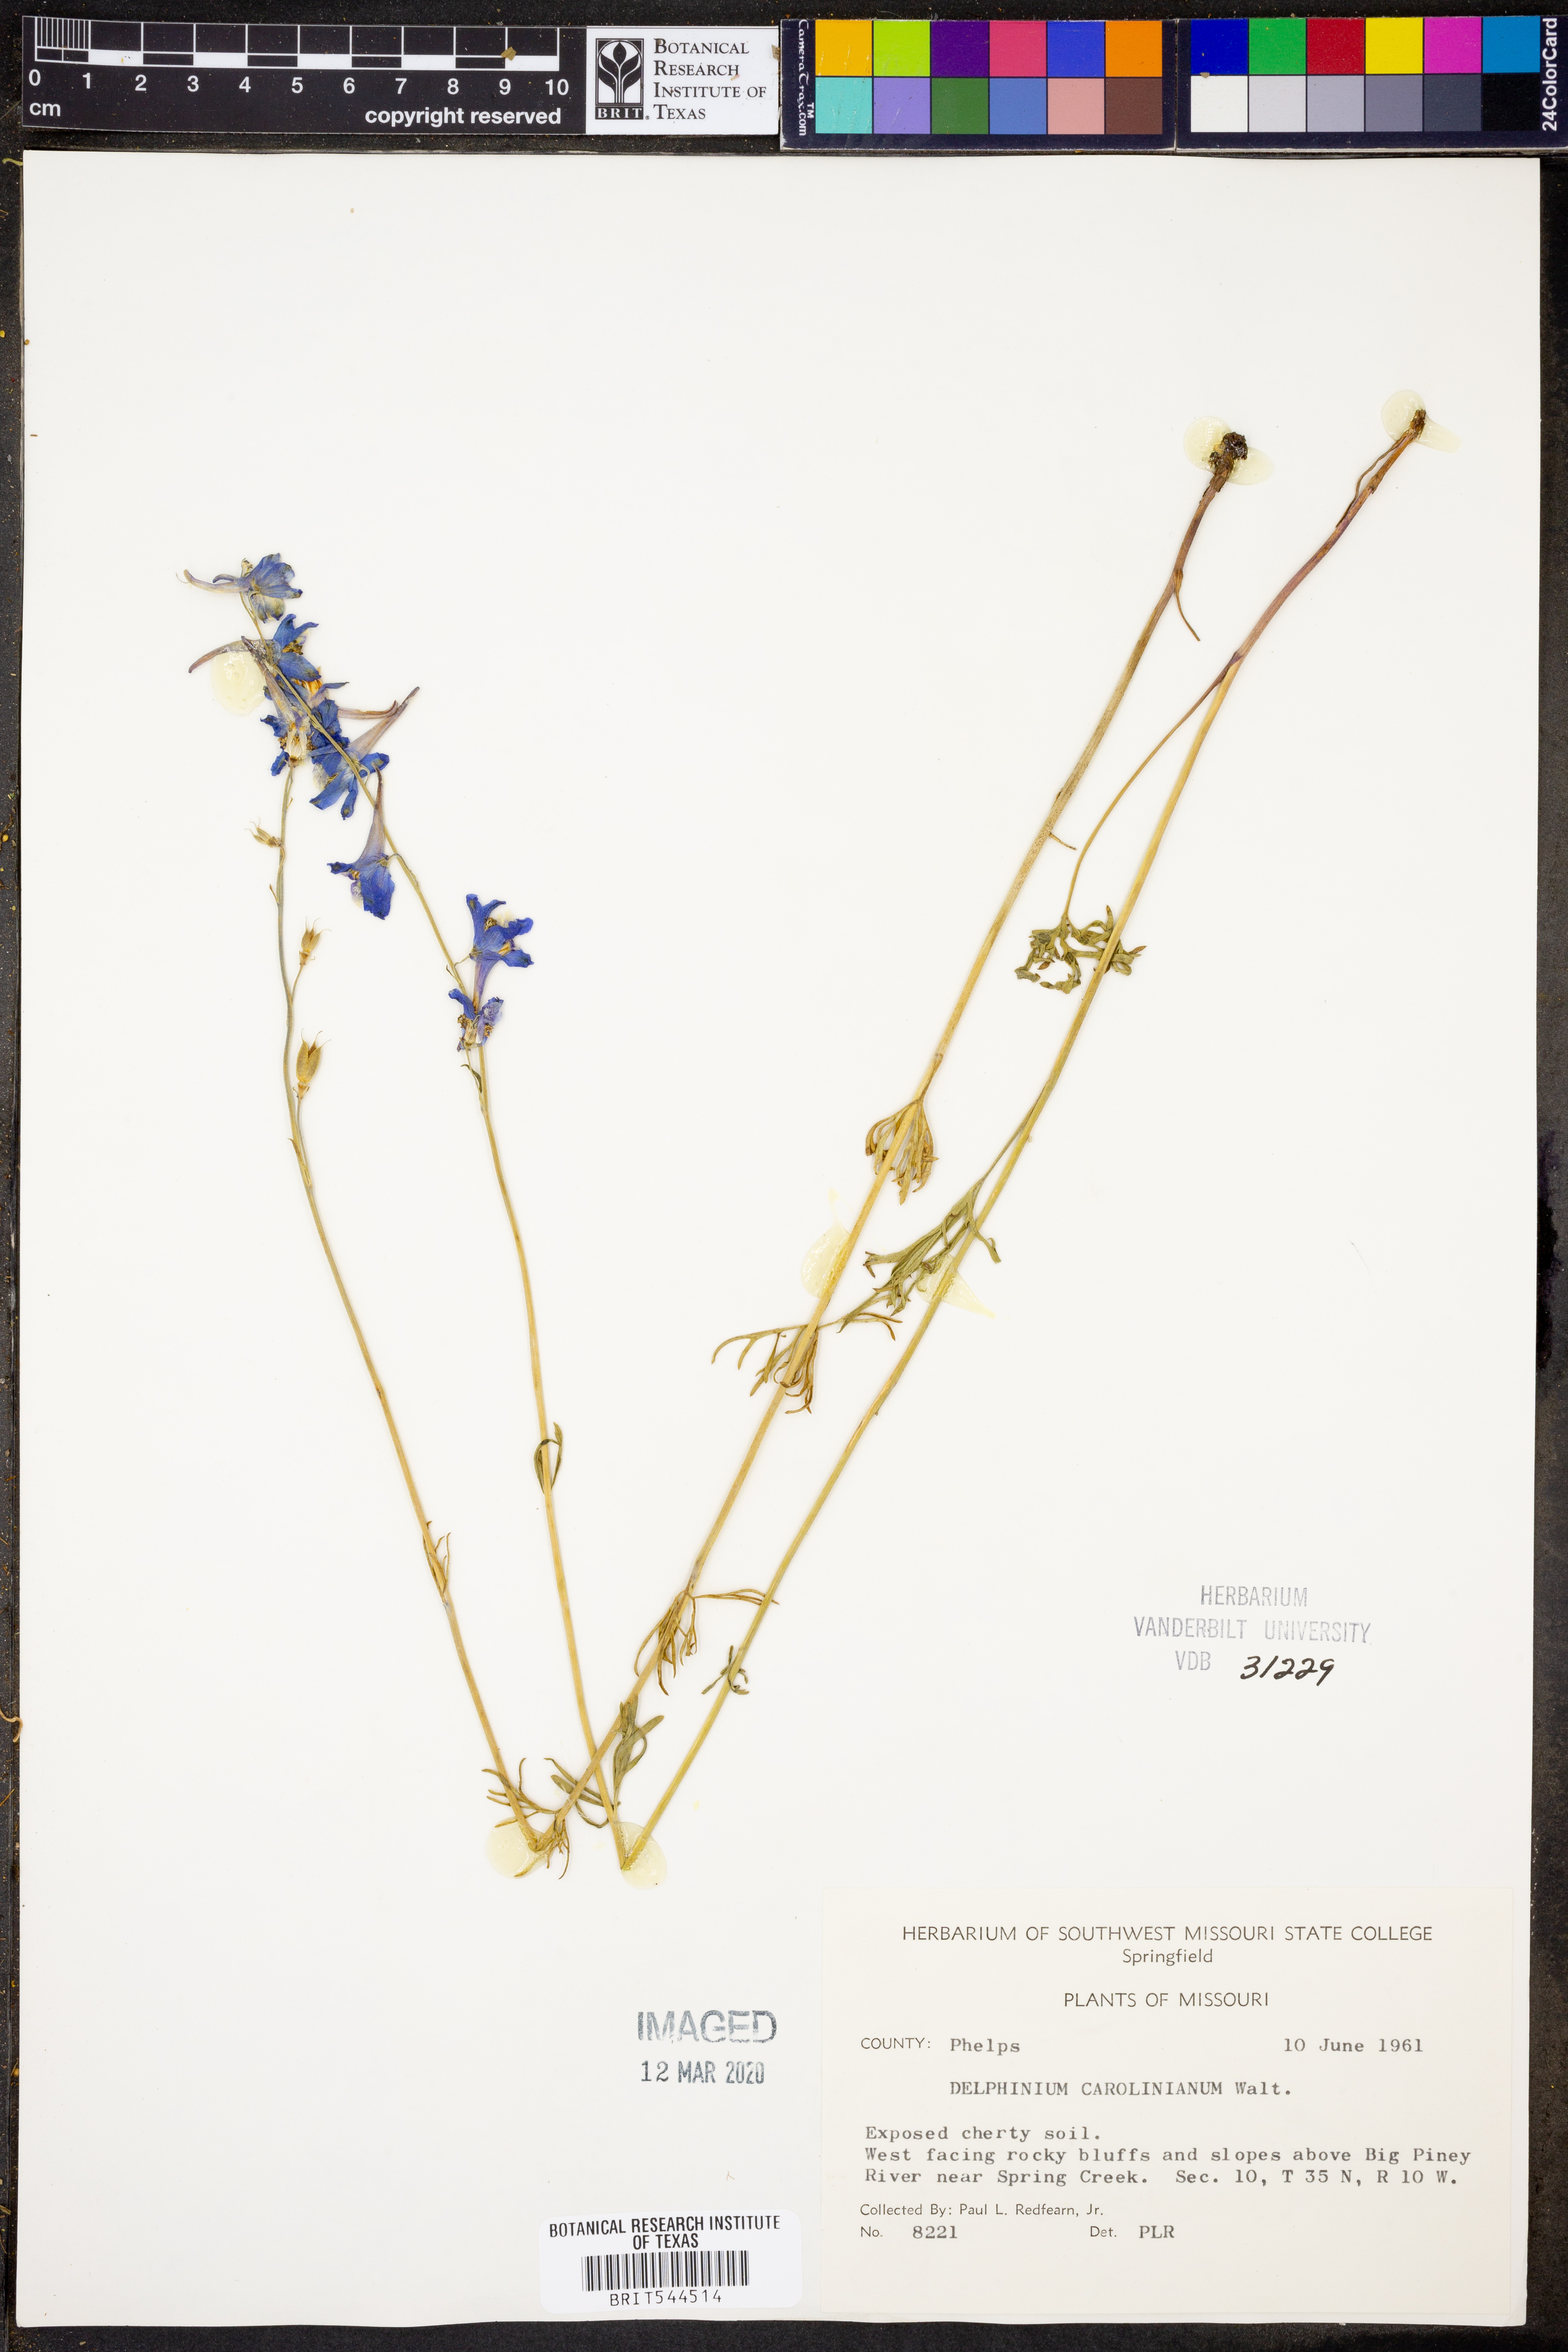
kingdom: Plantae
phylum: Tracheophyta
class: Magnoliopsida
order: Ranunculales
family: Ranunculaceae
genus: Delphinium
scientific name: Delphinium carolinianum
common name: Carolina larkspur
